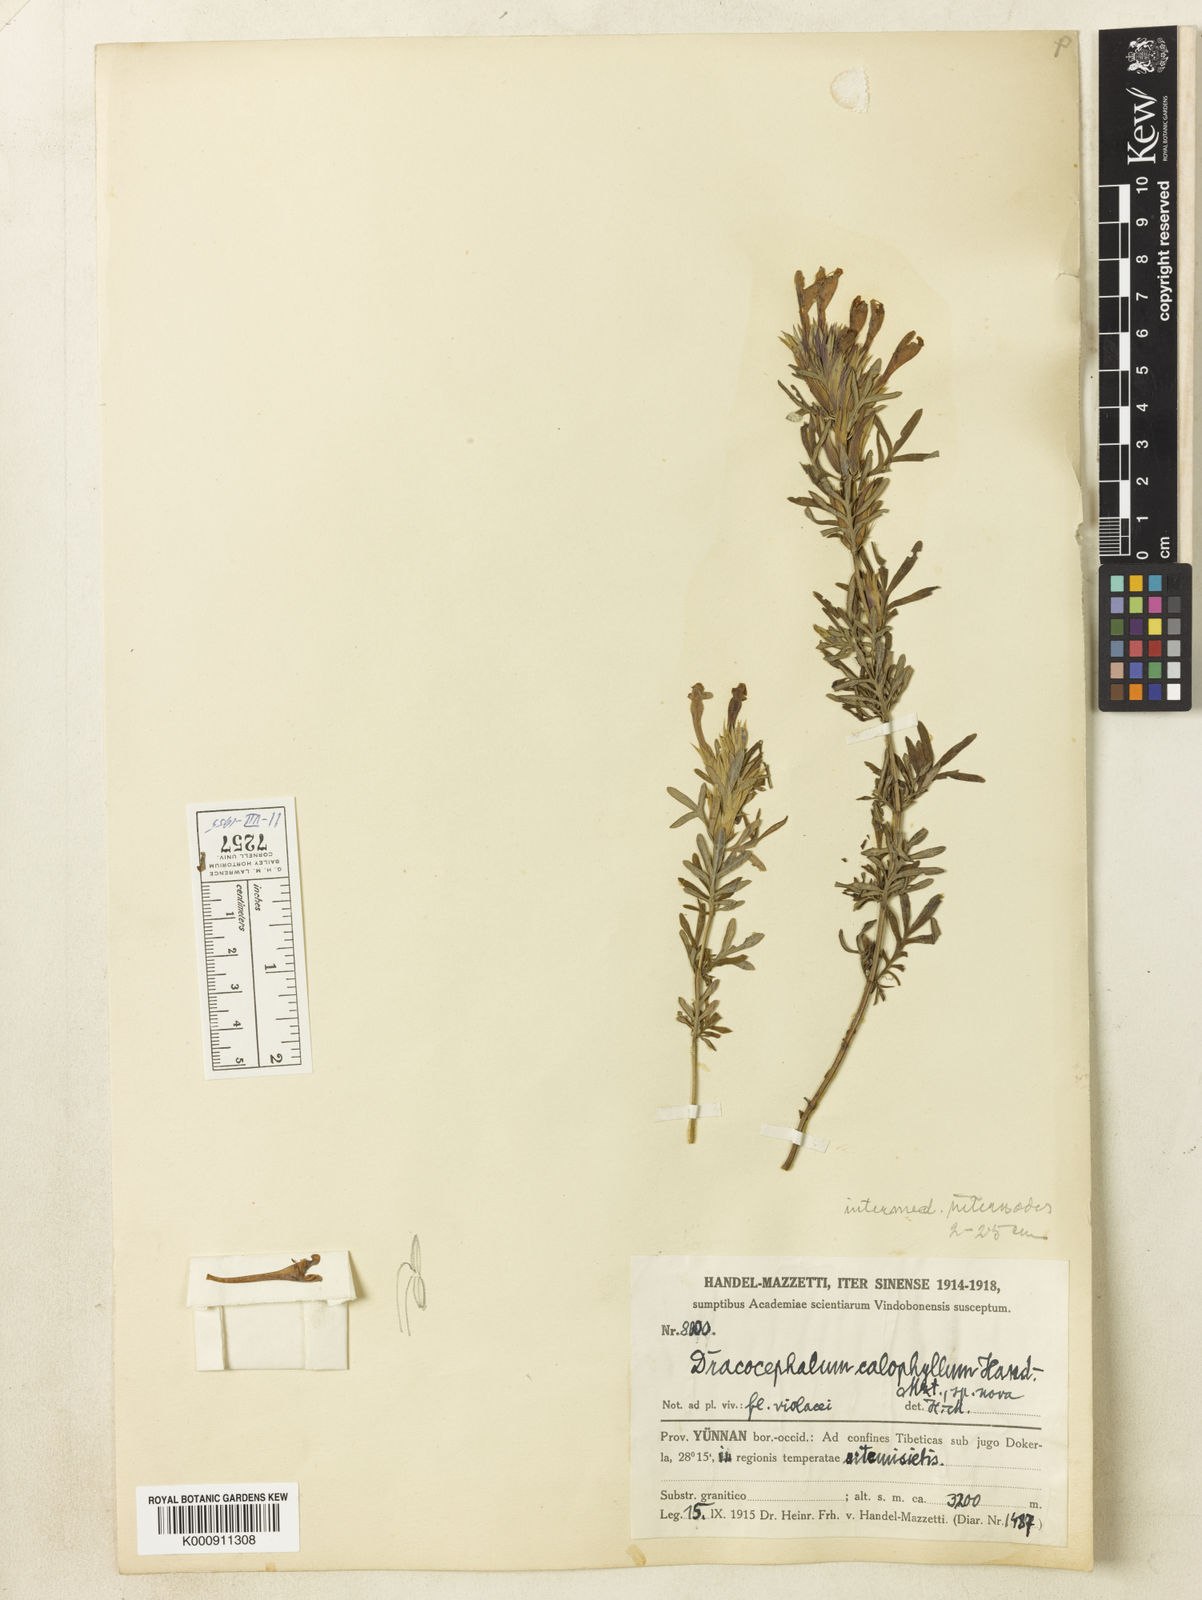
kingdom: Plantae
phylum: Tracheophyta
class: Magnoliopsida
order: Lamiales
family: Lamiaceae
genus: Dracocephalum
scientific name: Dracocephalum calophyllum
